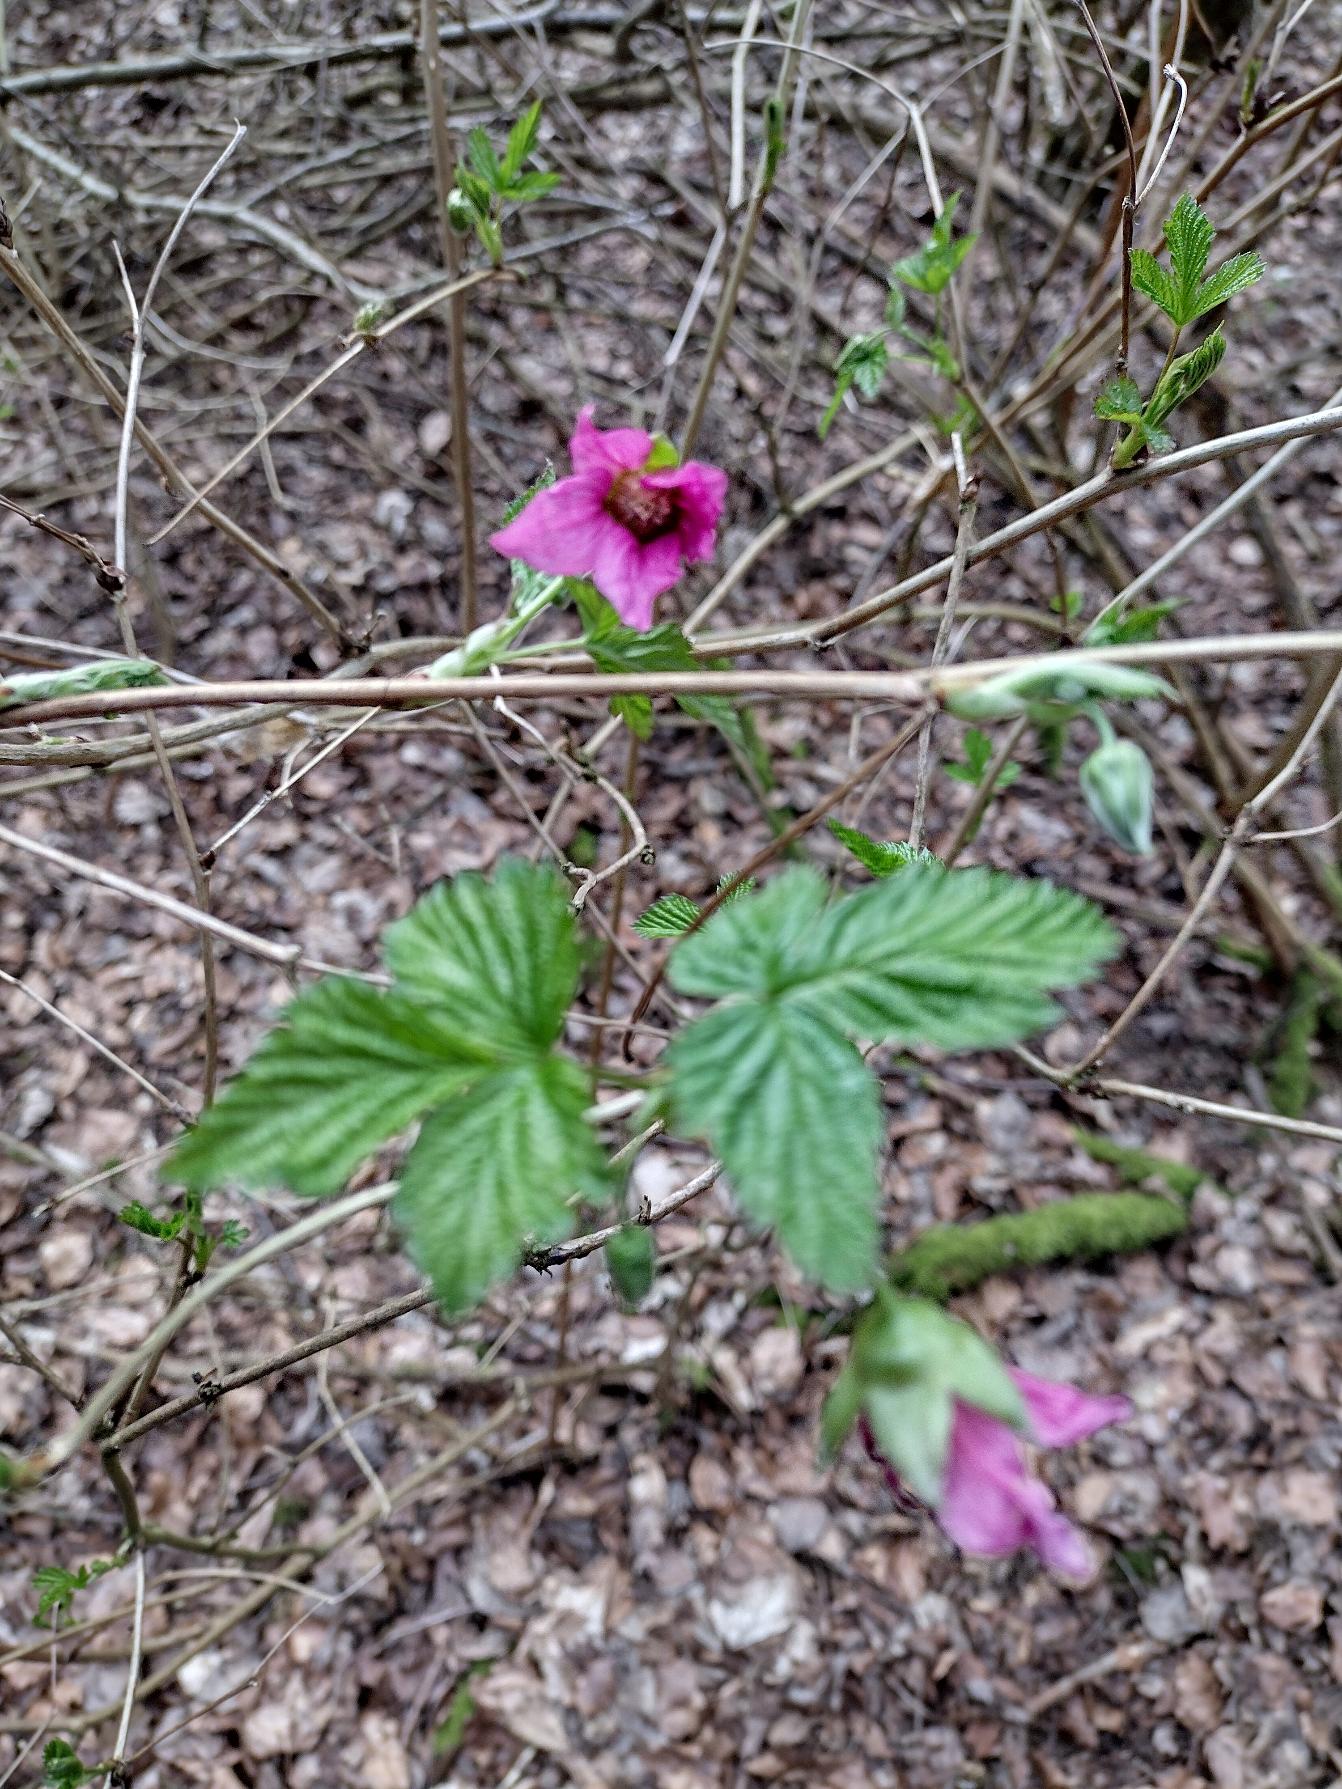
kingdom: Plantae
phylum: Tracheophyta
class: Magnoliopsida
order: Rosales
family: Rosaceae
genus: Rubus
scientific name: Rubus spectabilis
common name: Laksebær
